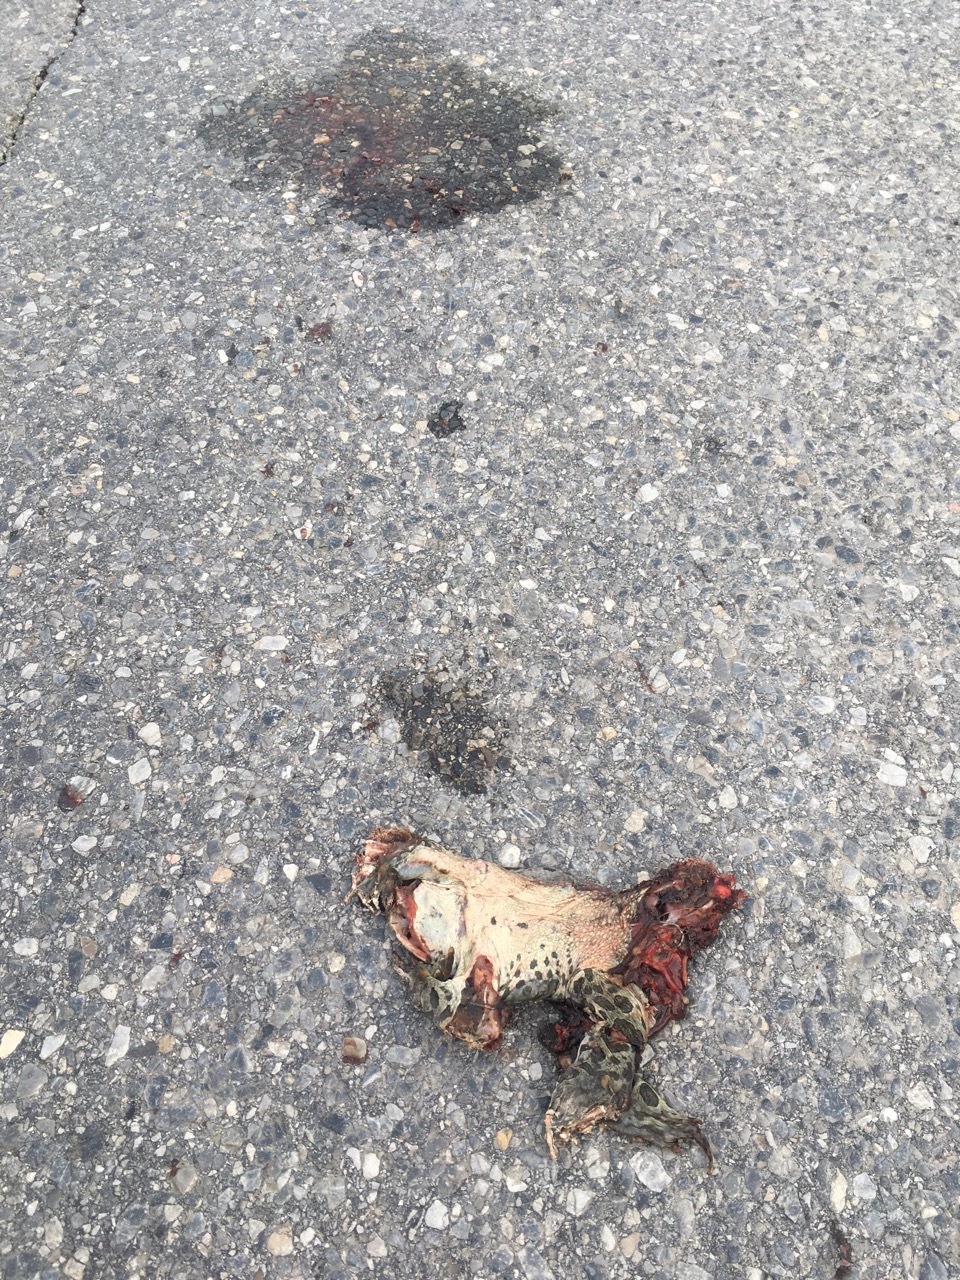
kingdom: Animalia
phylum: Chordata
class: Amphibia
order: Anura
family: Bufonidae
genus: Bufotes
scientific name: Bufotes viridis
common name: European green toad
